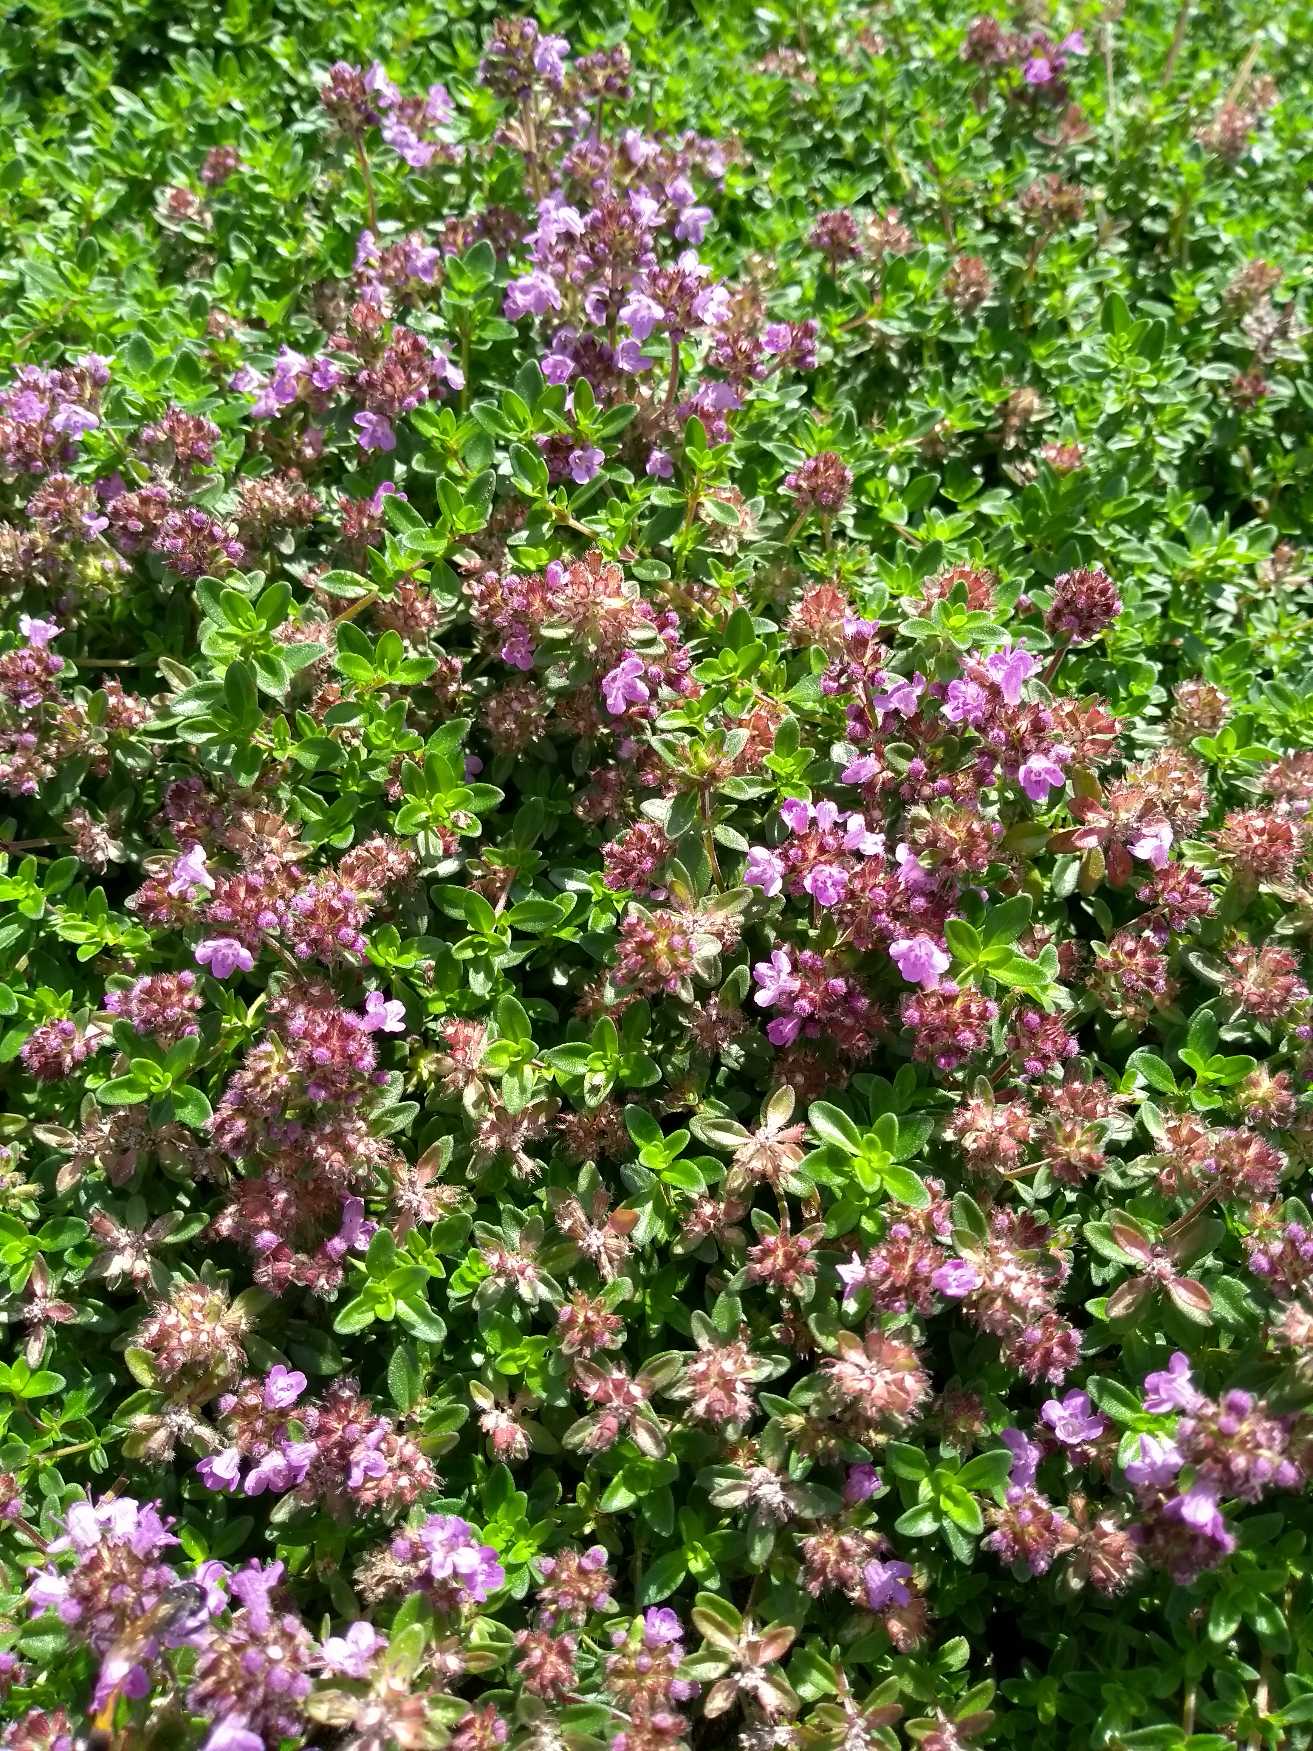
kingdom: Plantae
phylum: Tracheophyta
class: Magnoliopsida
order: Lamiales
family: Lamiaceae
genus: Thymus
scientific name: Thymus pulegioides
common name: Bredbladet timian
